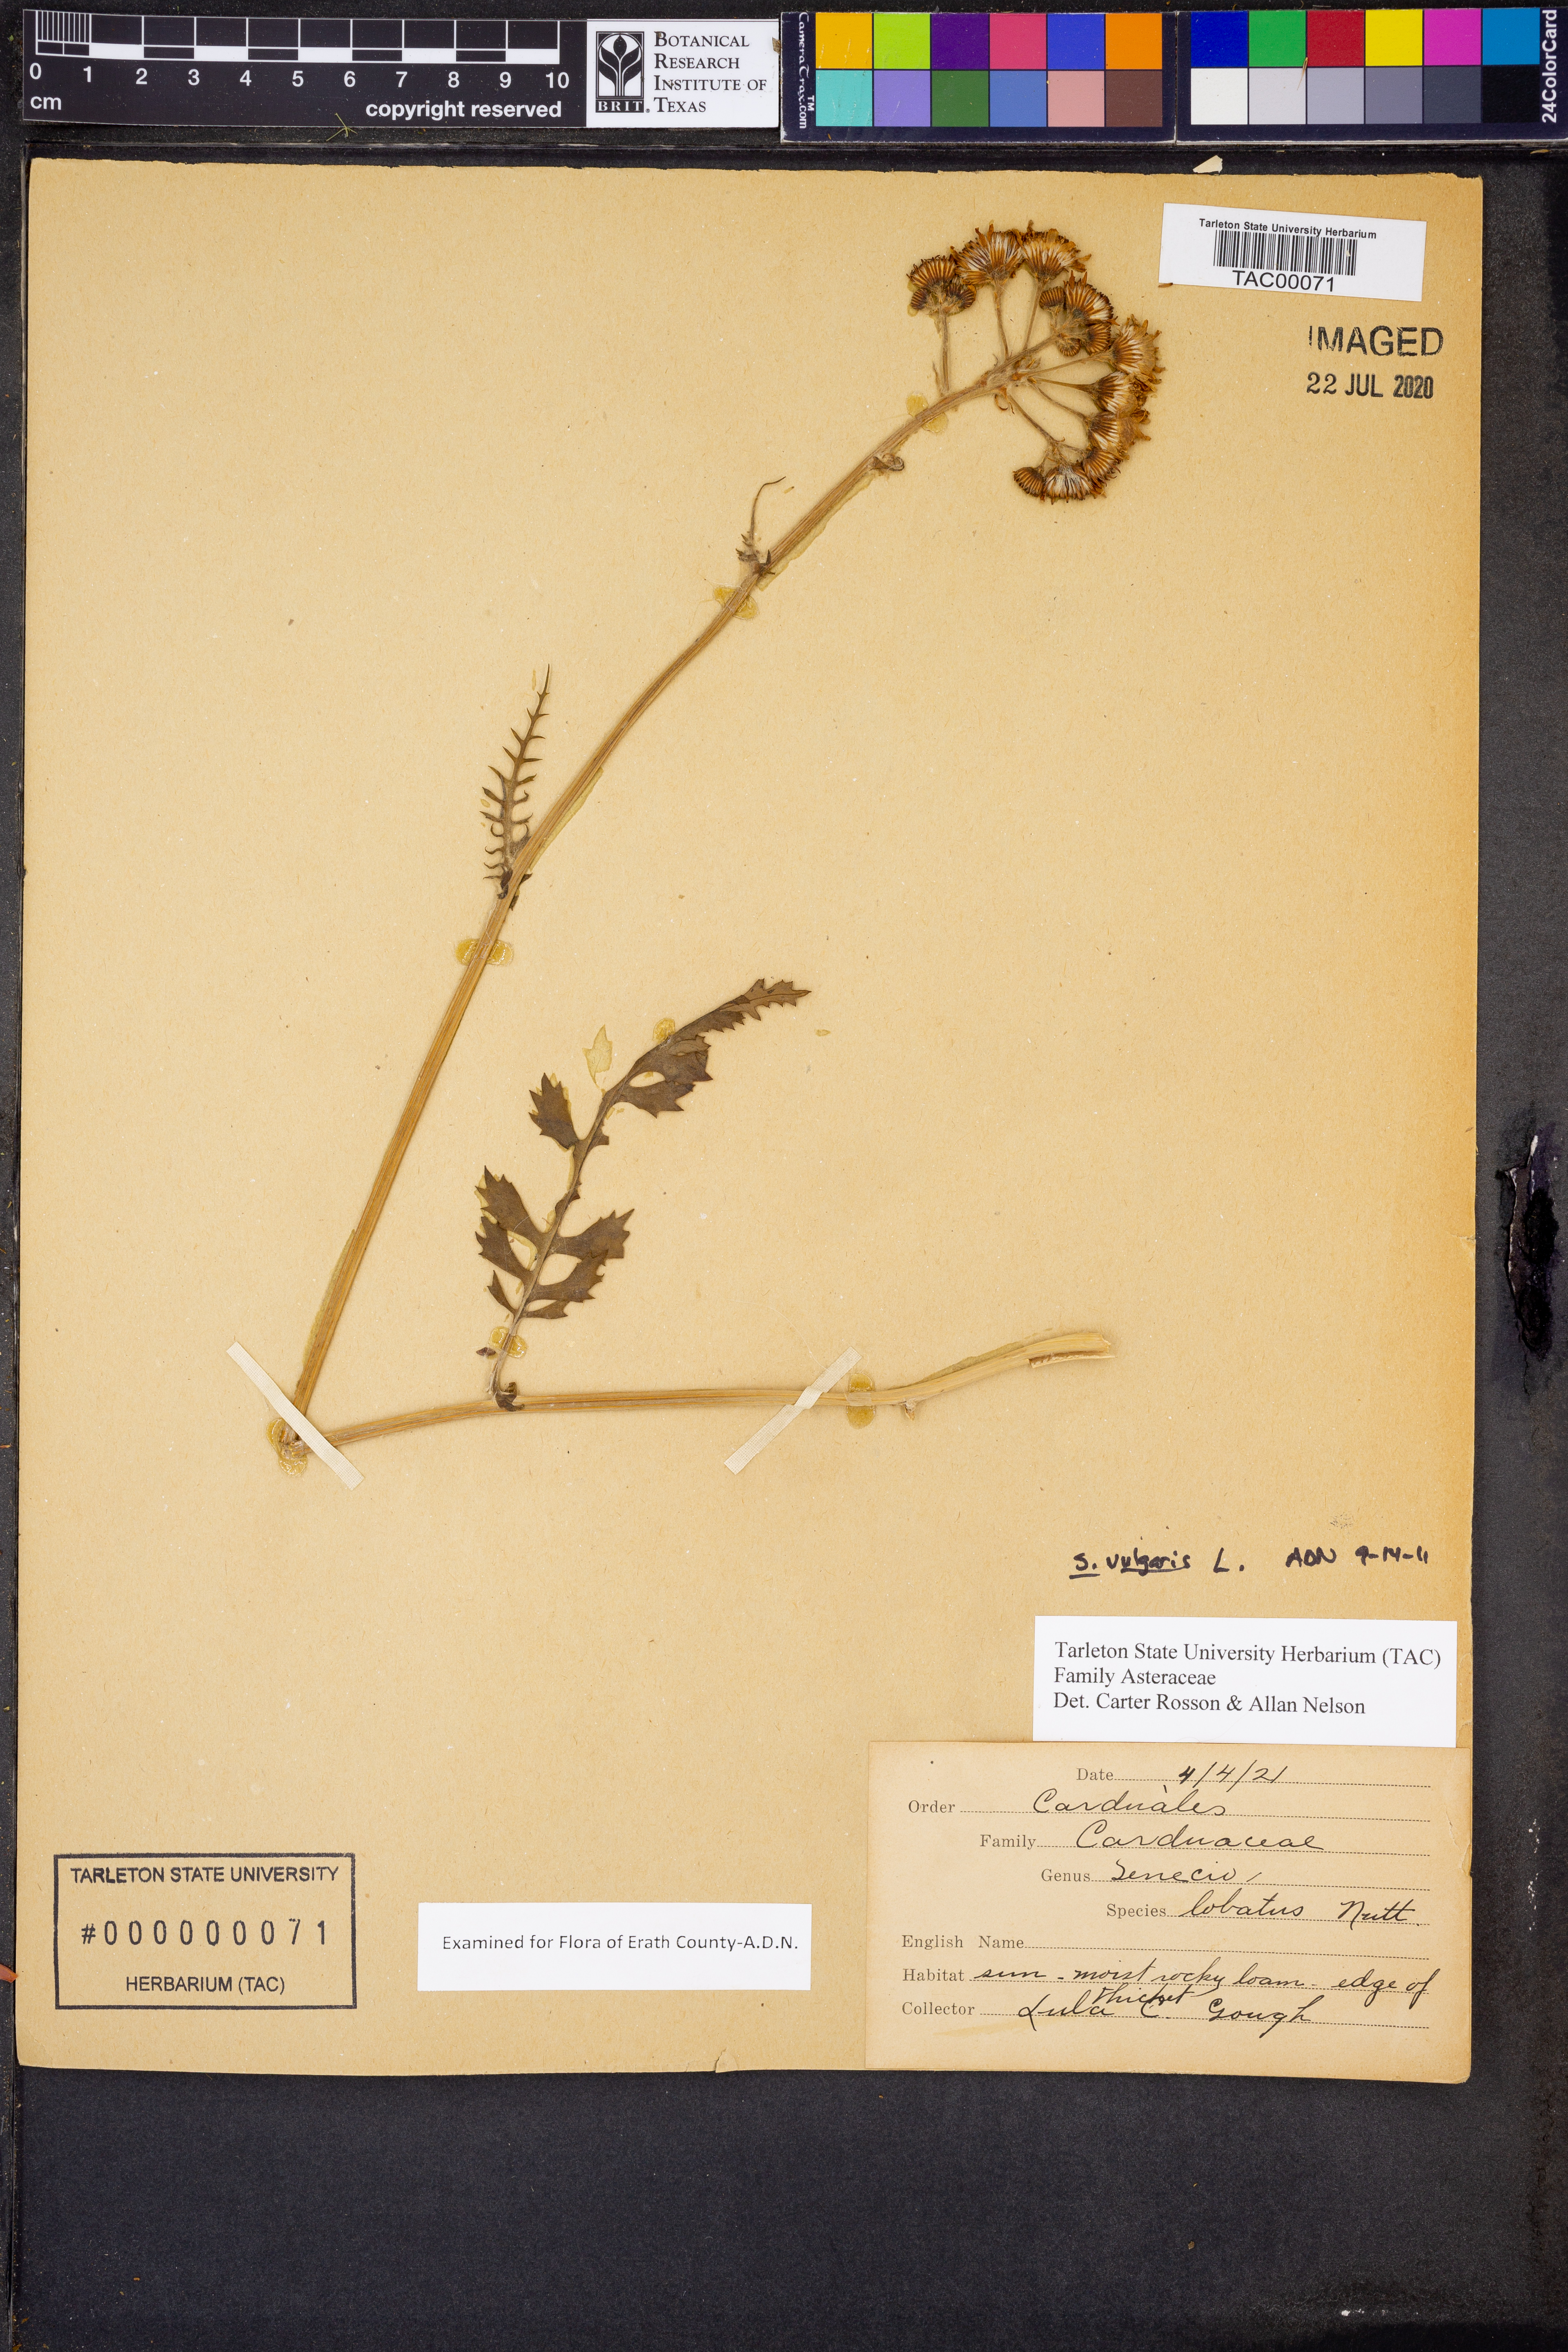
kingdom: Plantae
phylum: Tracheophyta
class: Magnoliopsida
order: Asterales
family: Asteraceae
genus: Senecio
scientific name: Senecio vulgaris
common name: Old-man-in-the-spring
